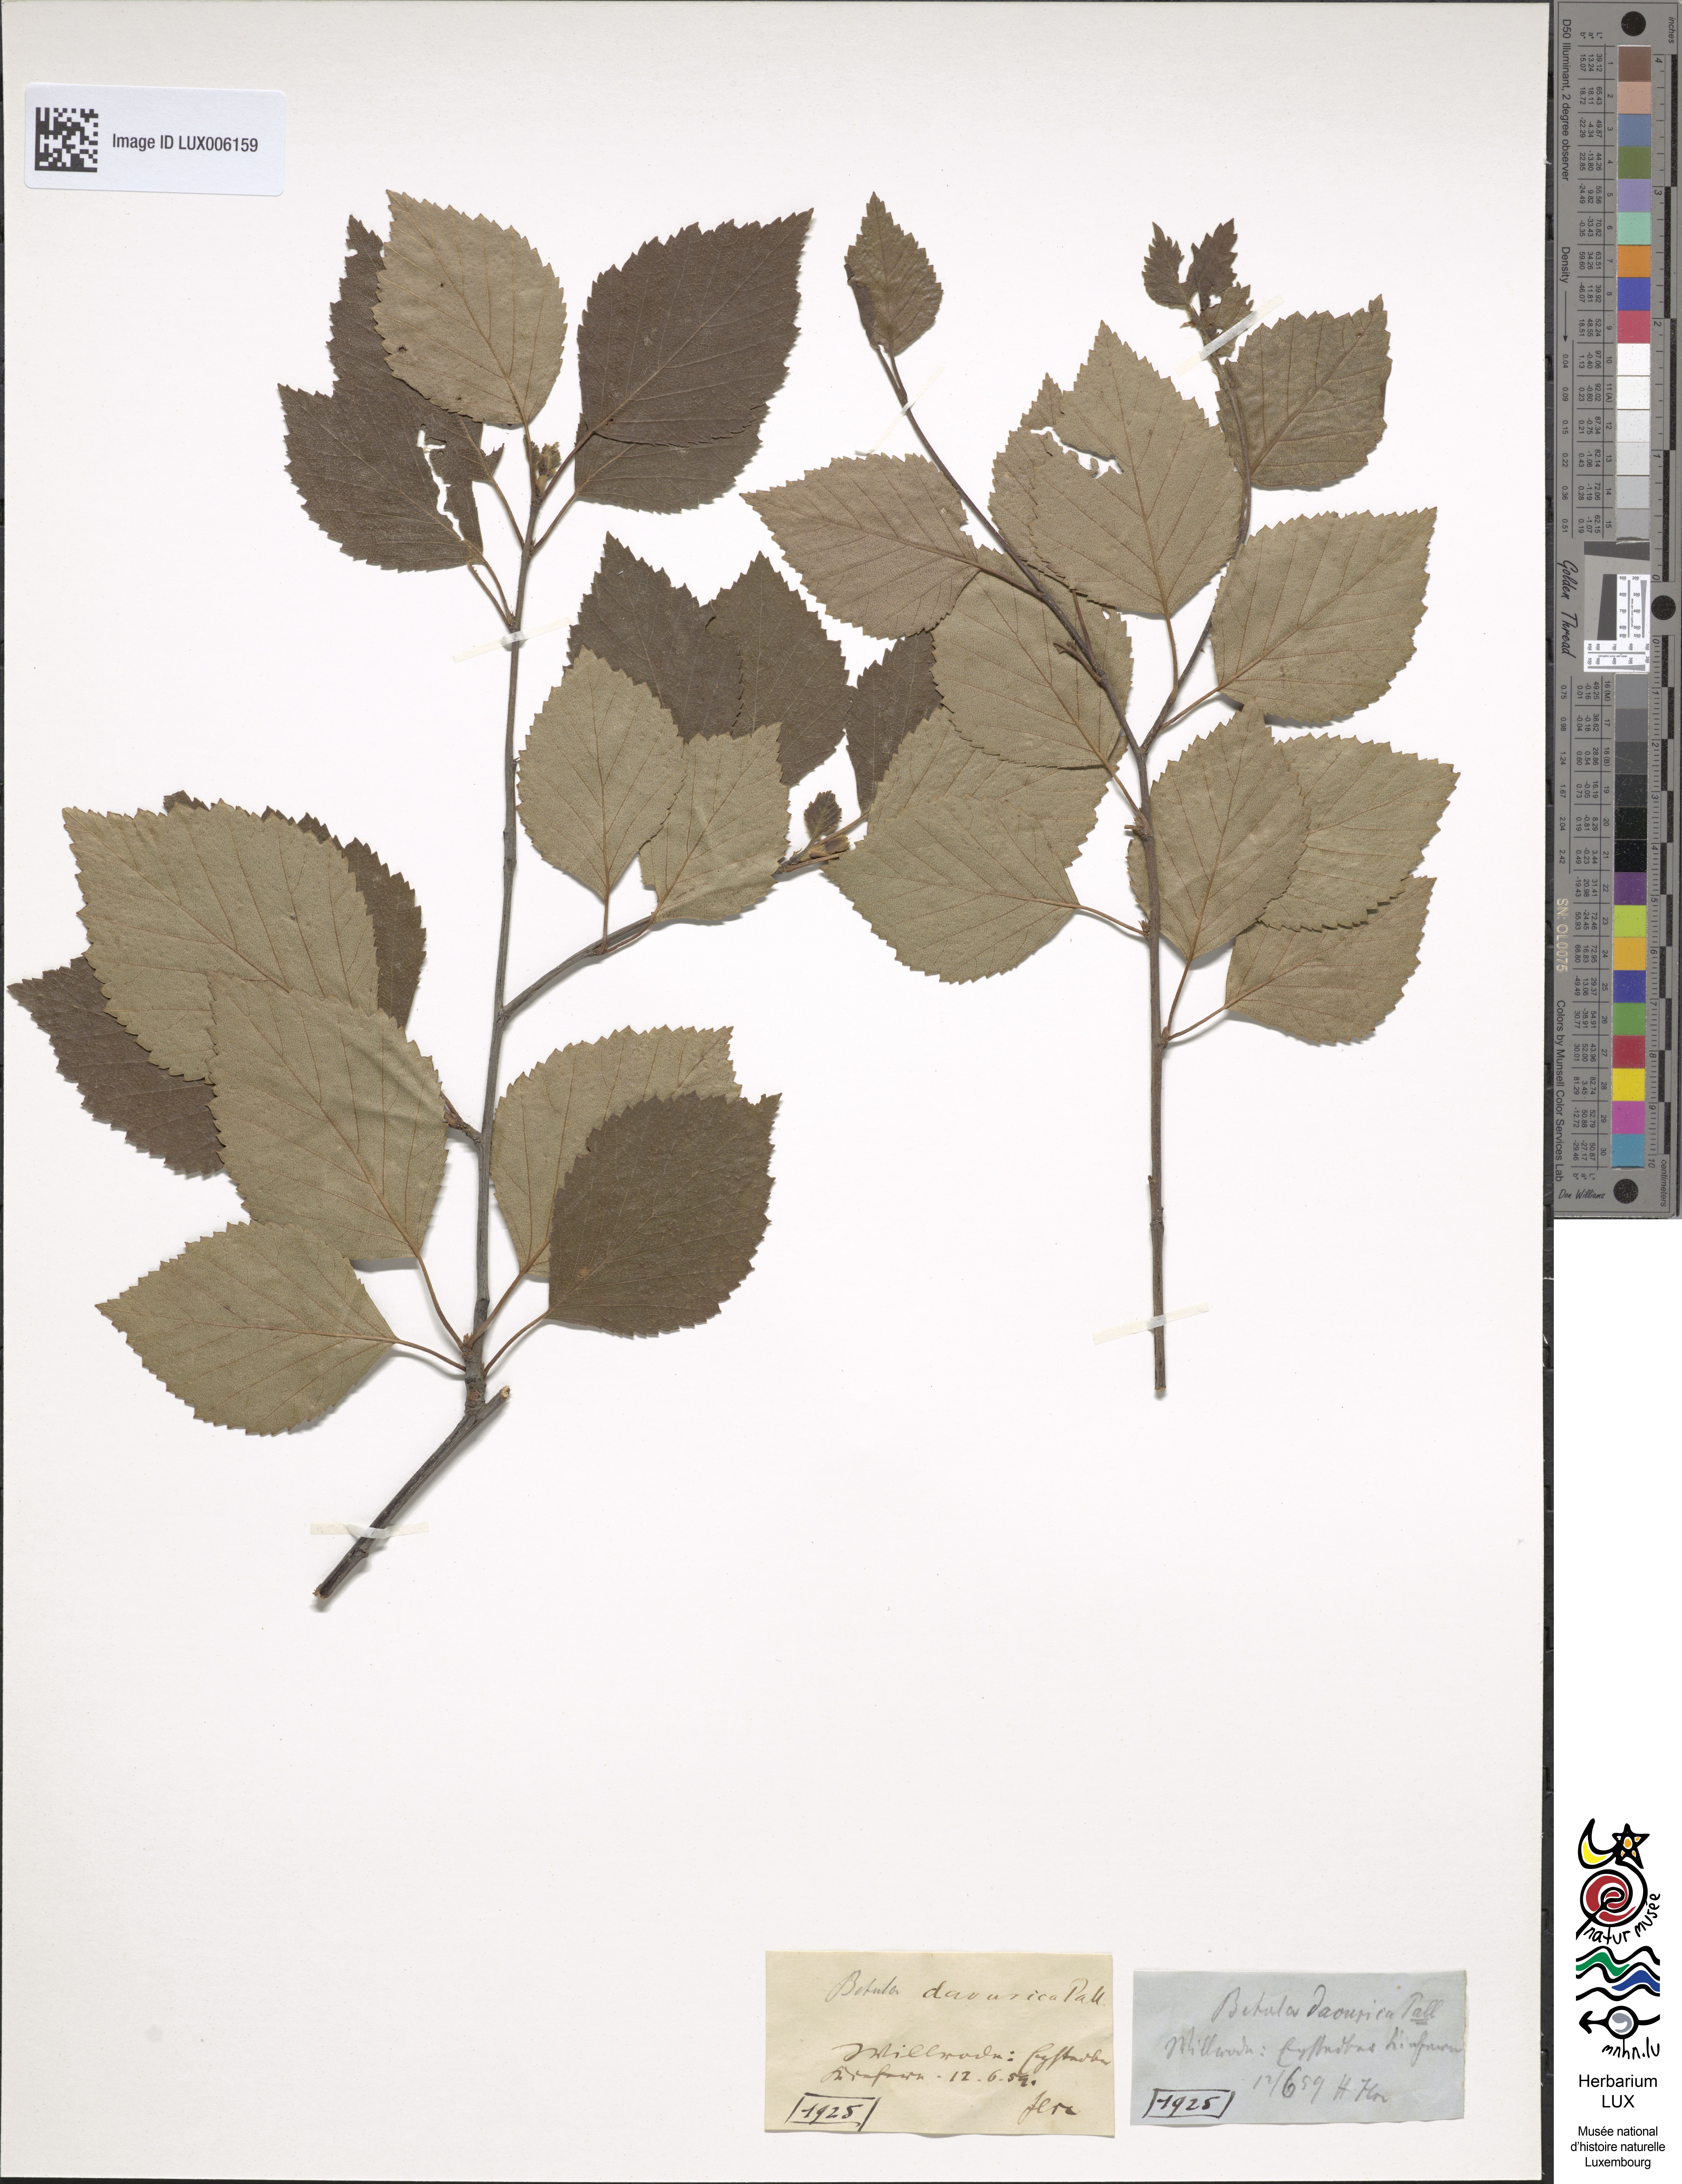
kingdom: Plantae
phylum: Tracheophyta
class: Magnoliopsida
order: Fagales
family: Betulaceae
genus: Betula
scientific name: Betula pubescens
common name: Downy birch
